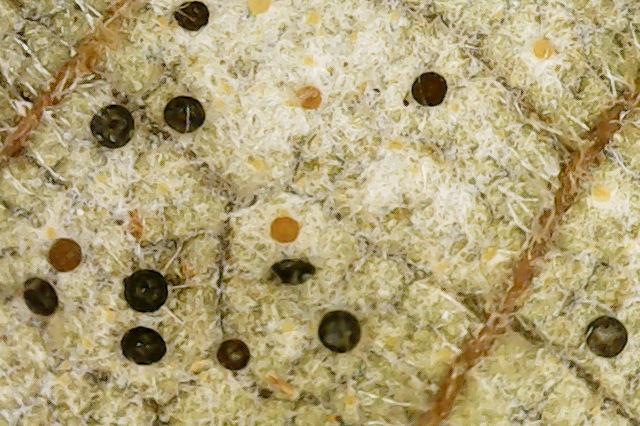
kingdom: Fungi
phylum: Ascomycota
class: Leotiomycetes
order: Helotiales
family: Erysiphaceae
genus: Phyllactinia
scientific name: Phyllactinia guttata
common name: hassel-meldug
